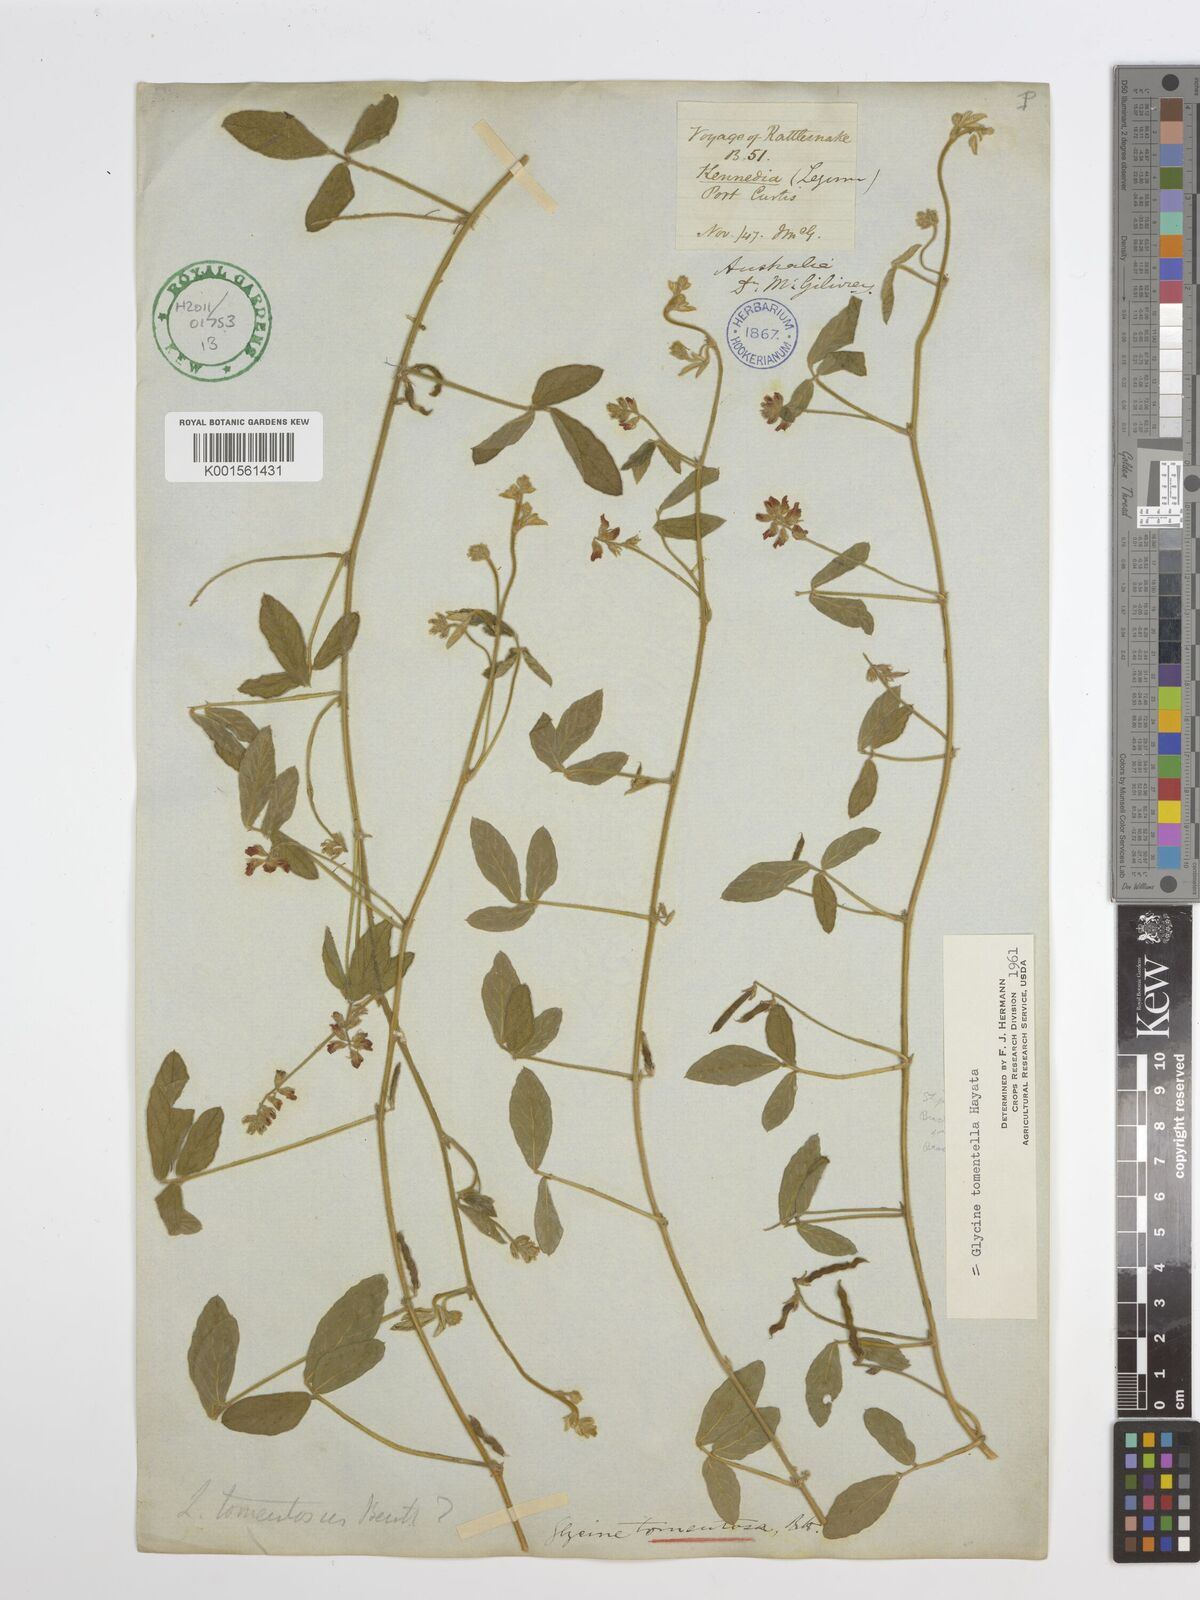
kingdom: Plantae
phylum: Tracheophyta
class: Magnoliopsida
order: Fabales
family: Fabaceae
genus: Glycine
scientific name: Glycine tomentella
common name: Hairy glycine
